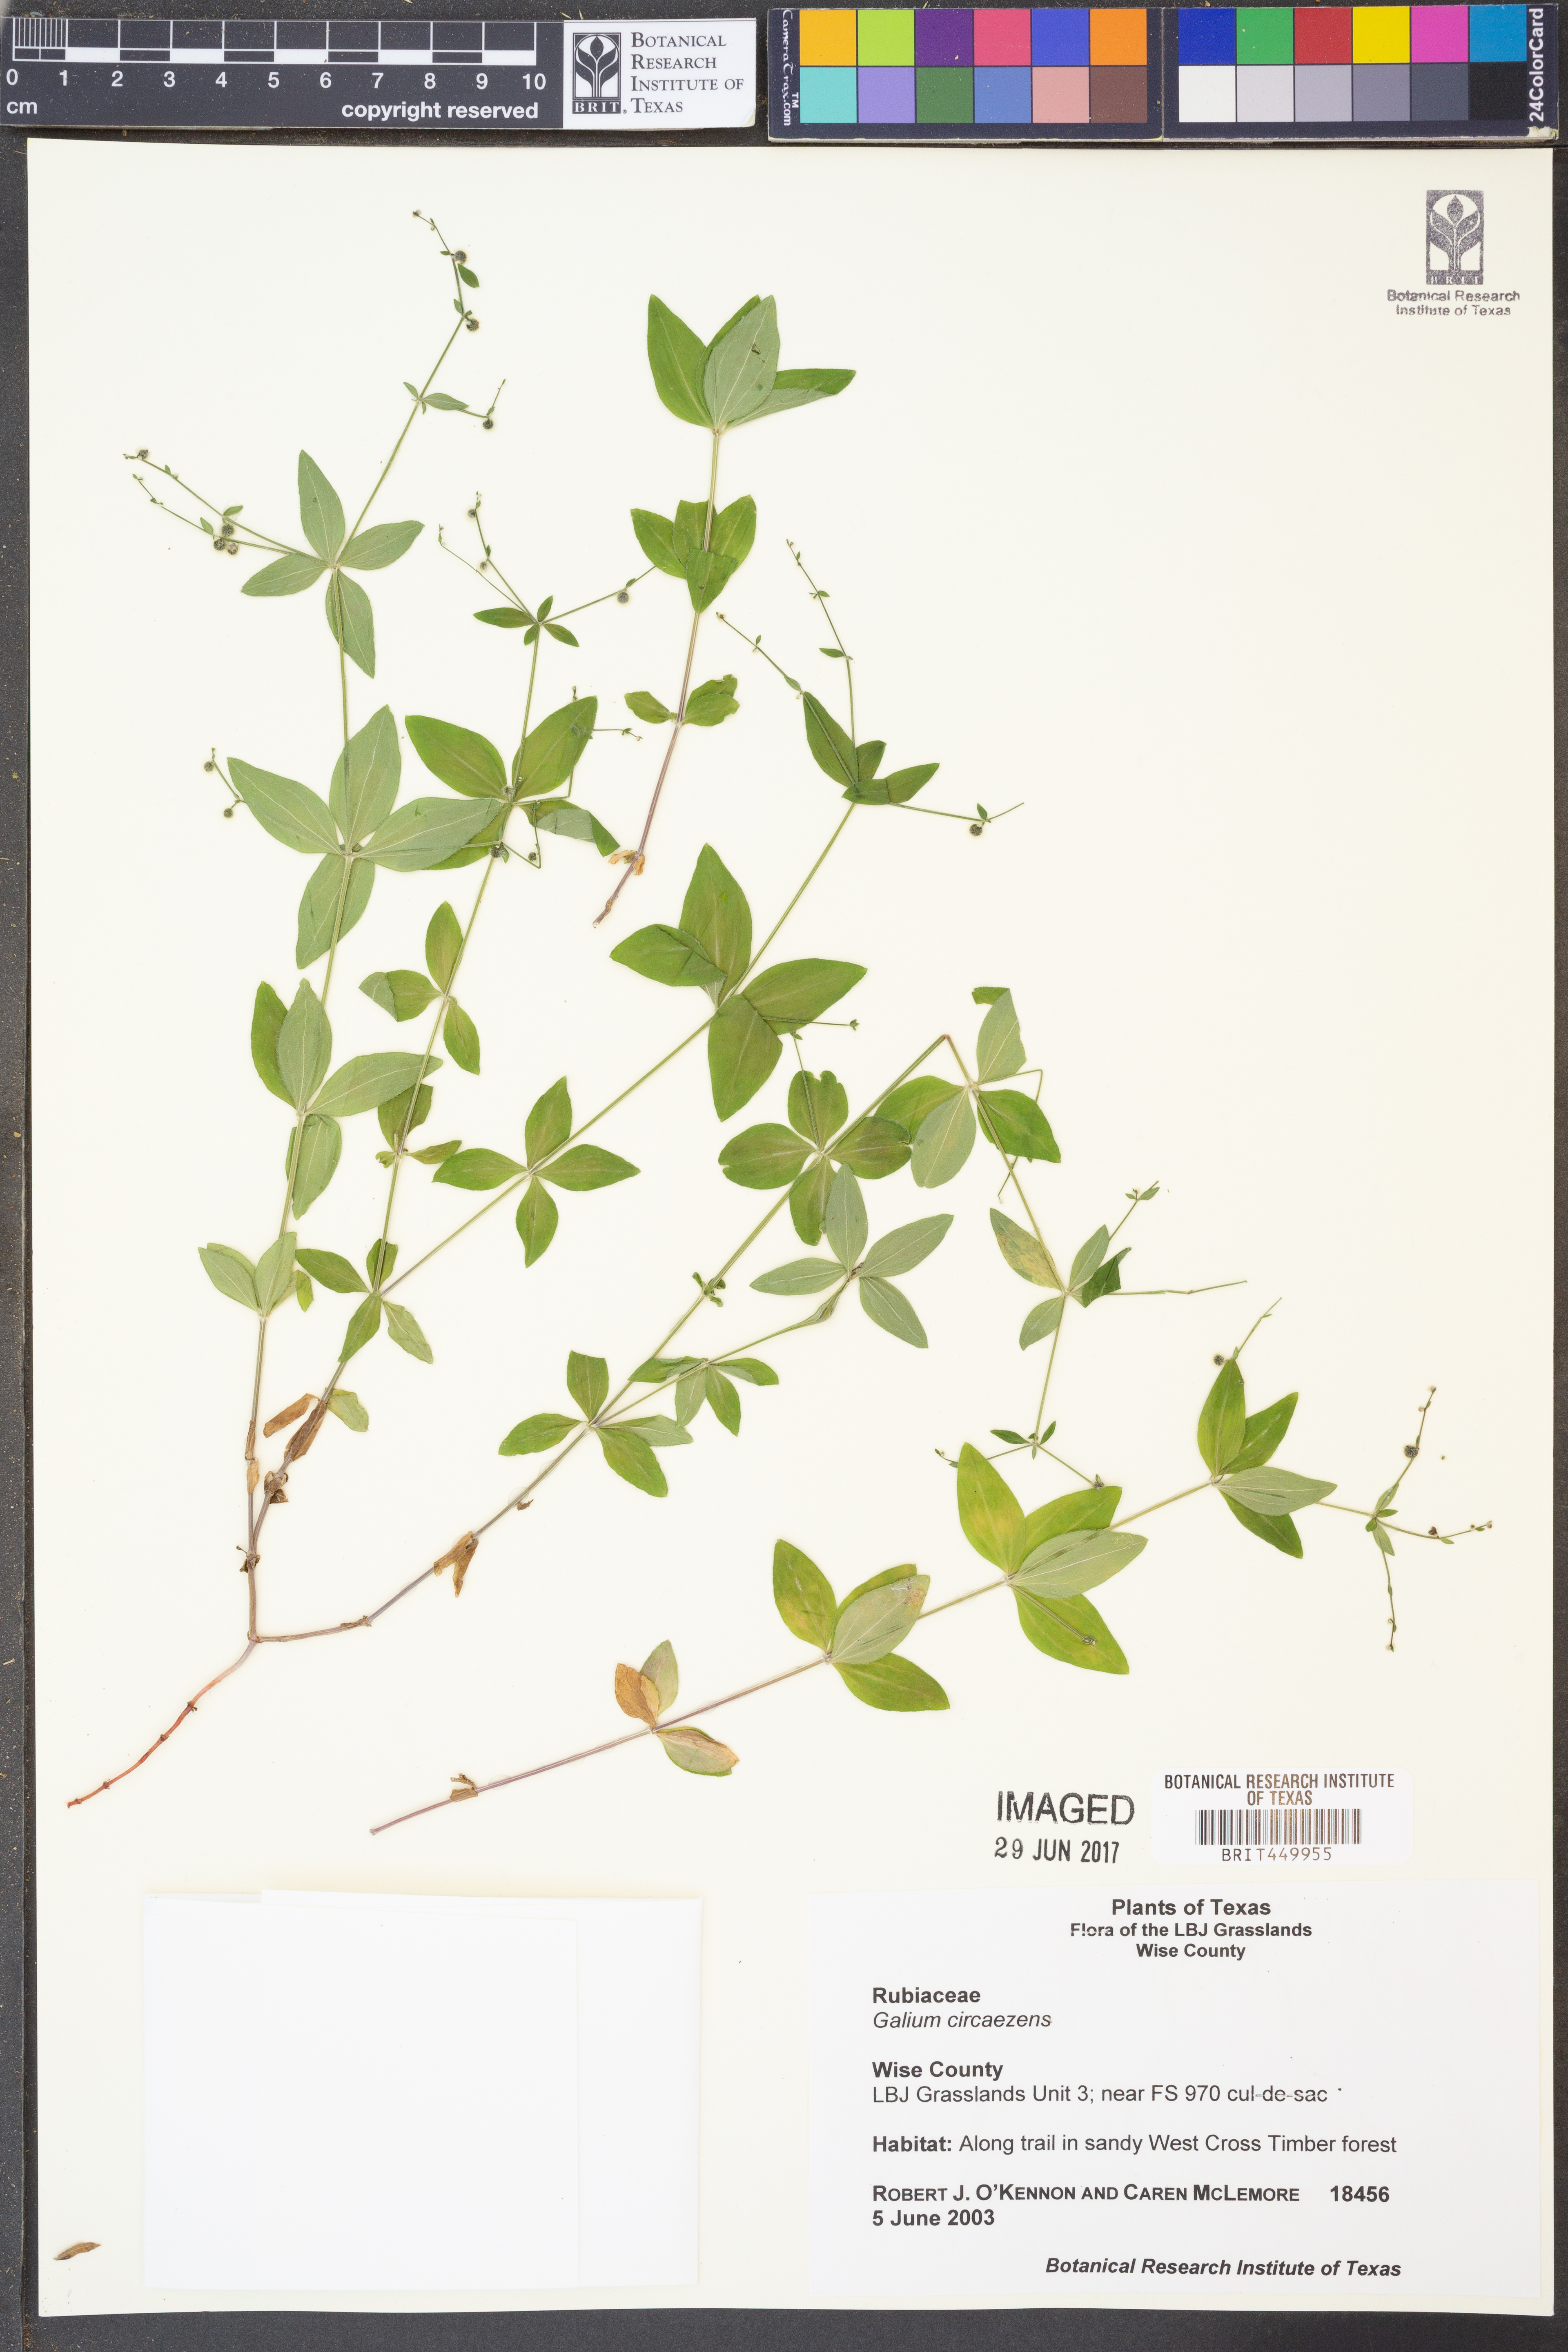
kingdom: Plantae
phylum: Tracheophyta
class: Magnoliopsida
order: Gentianales
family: Rubiaceae
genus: Galium
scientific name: Galium circaezans
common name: Forest bedstraw
